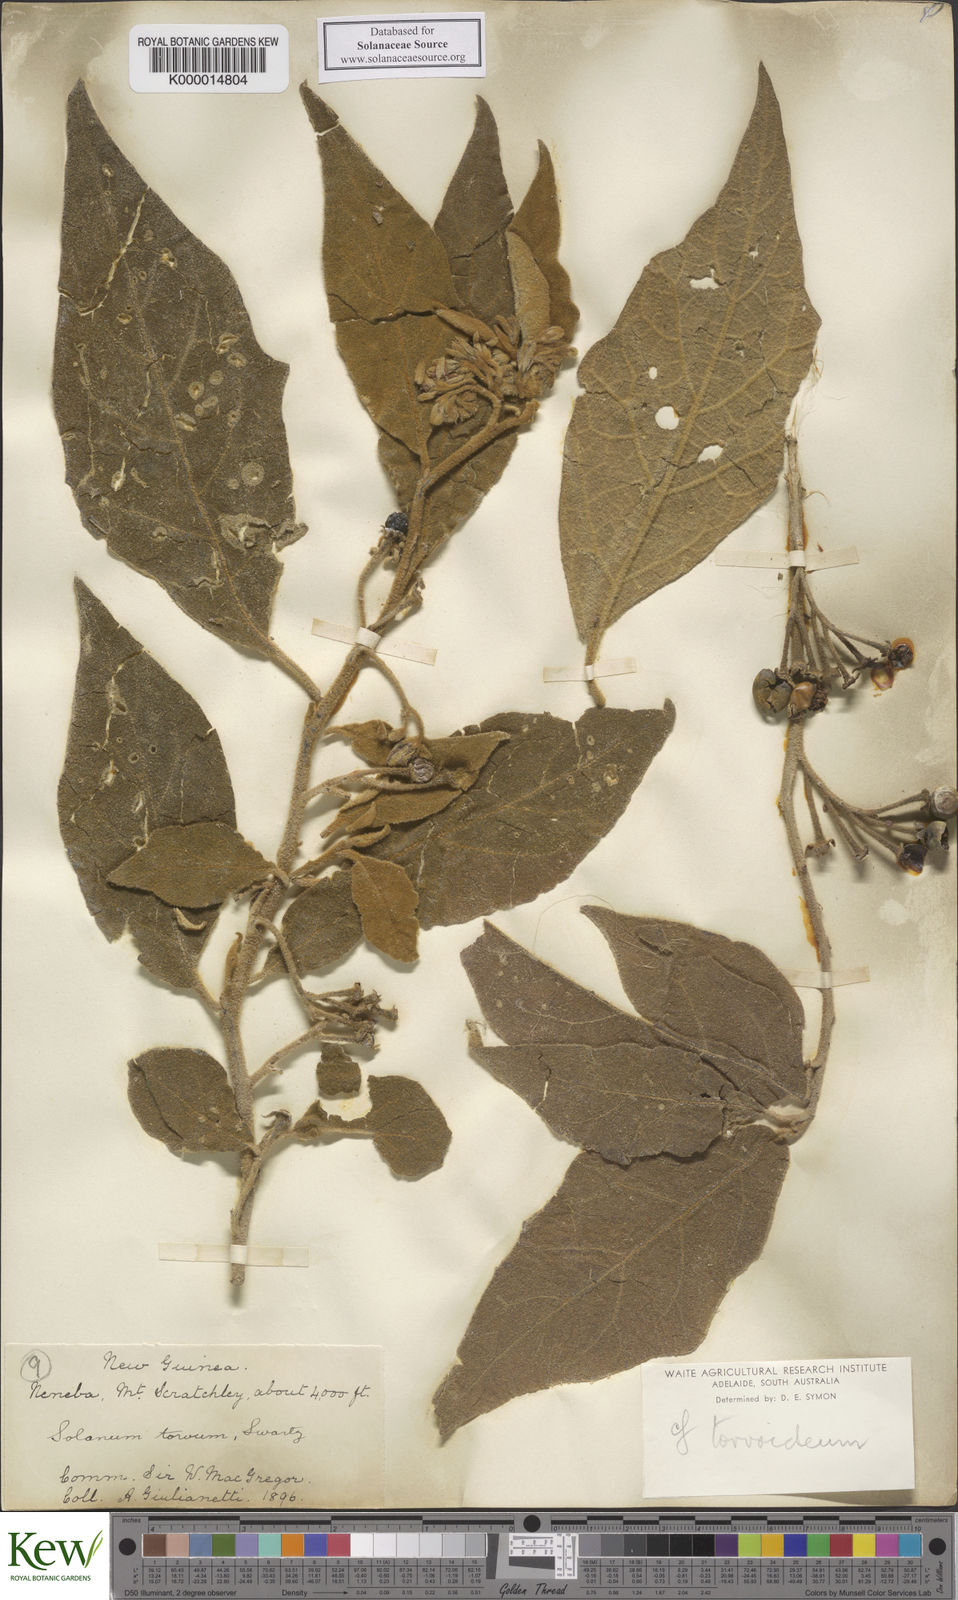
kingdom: Plantae
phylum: Tracheophyta
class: Magnoliopsida
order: Solanales
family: Solanaceae
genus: Solanum
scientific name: Solanum torvoideum
